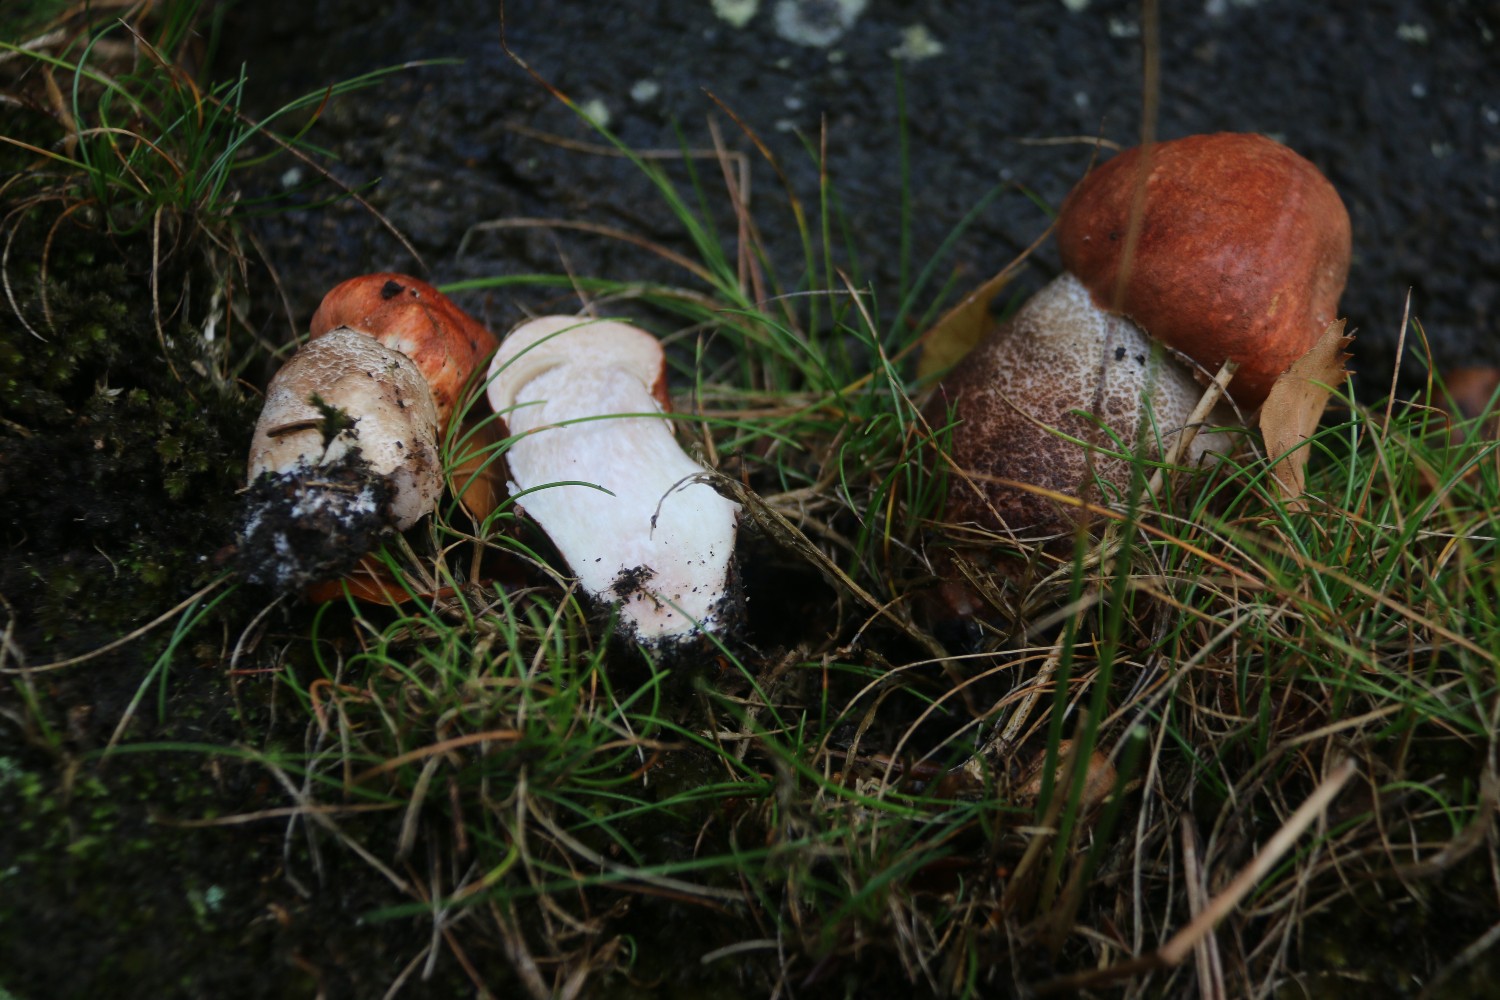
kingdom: Fungi
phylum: Basidiomycota
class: Agaricomycetes
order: Boletales
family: Boletaceae
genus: Leccinum
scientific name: Leccinum aurantiacum
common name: rustrød skælrørhat
